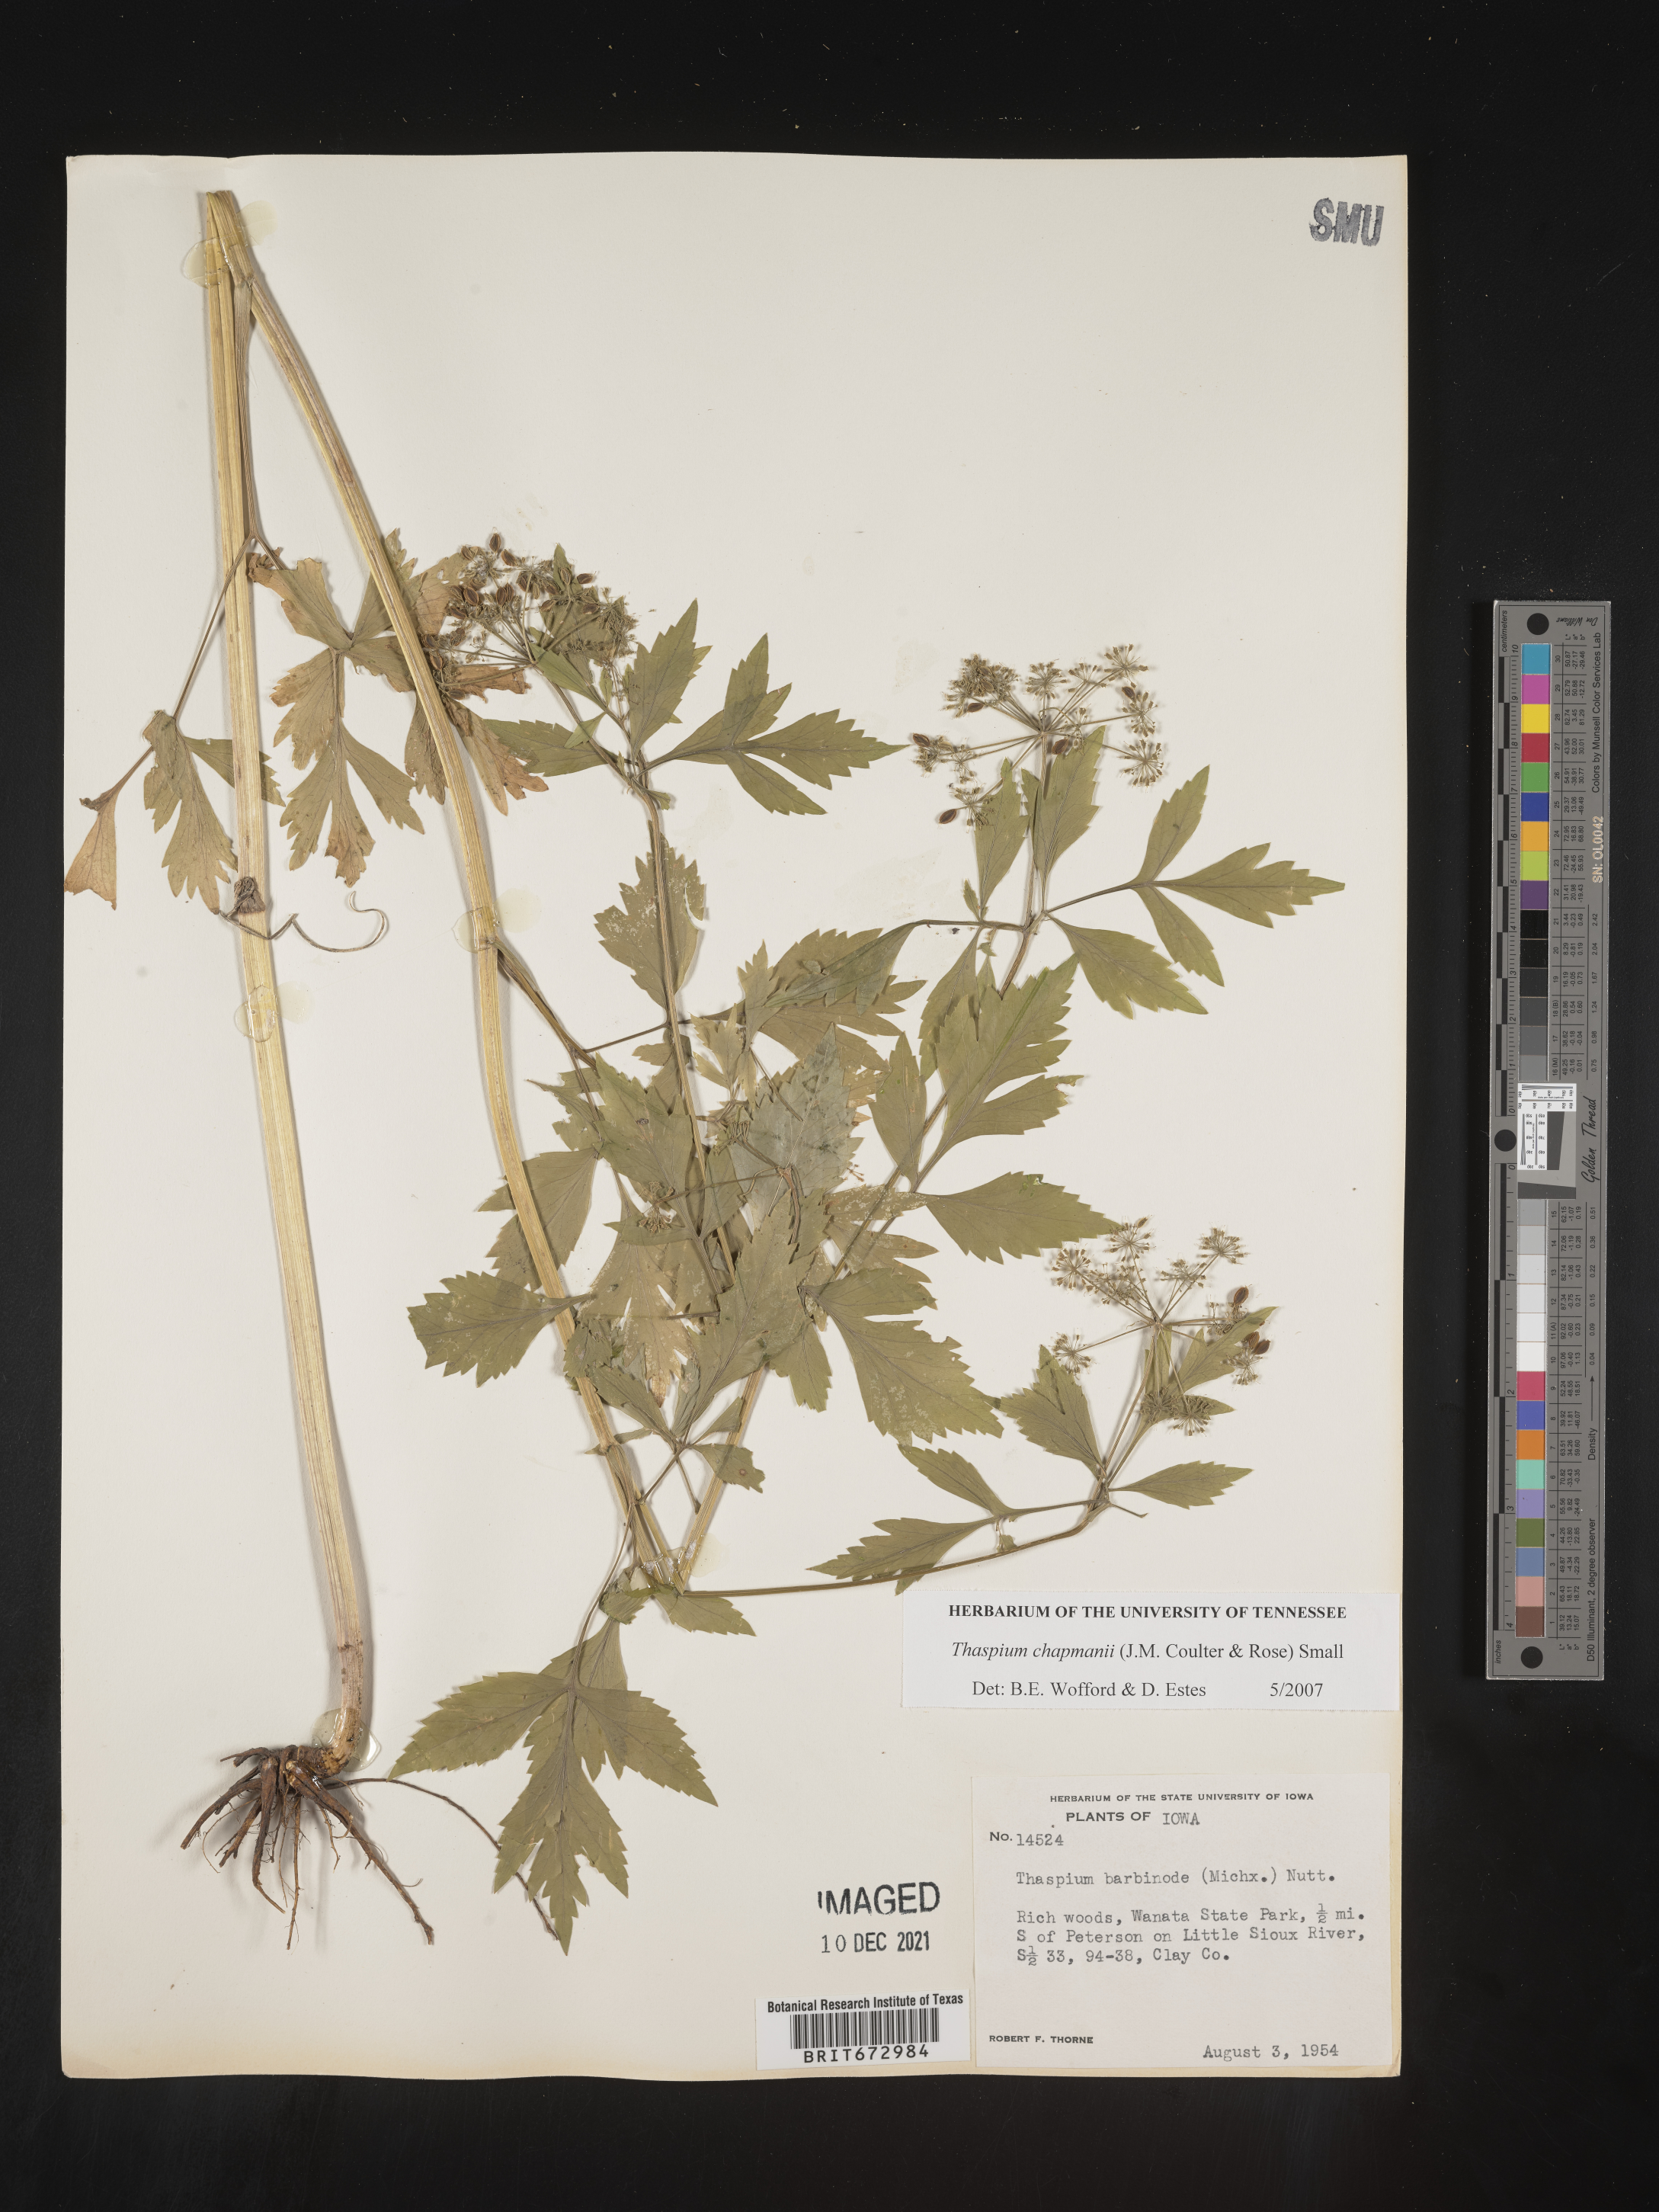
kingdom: Plantae
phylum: Tracheophyta
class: Magnoliopsida
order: Apiales
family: Apiaceae
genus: Thaspium
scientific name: Thaspium barbinode
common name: Bearded meadow-parsnip
